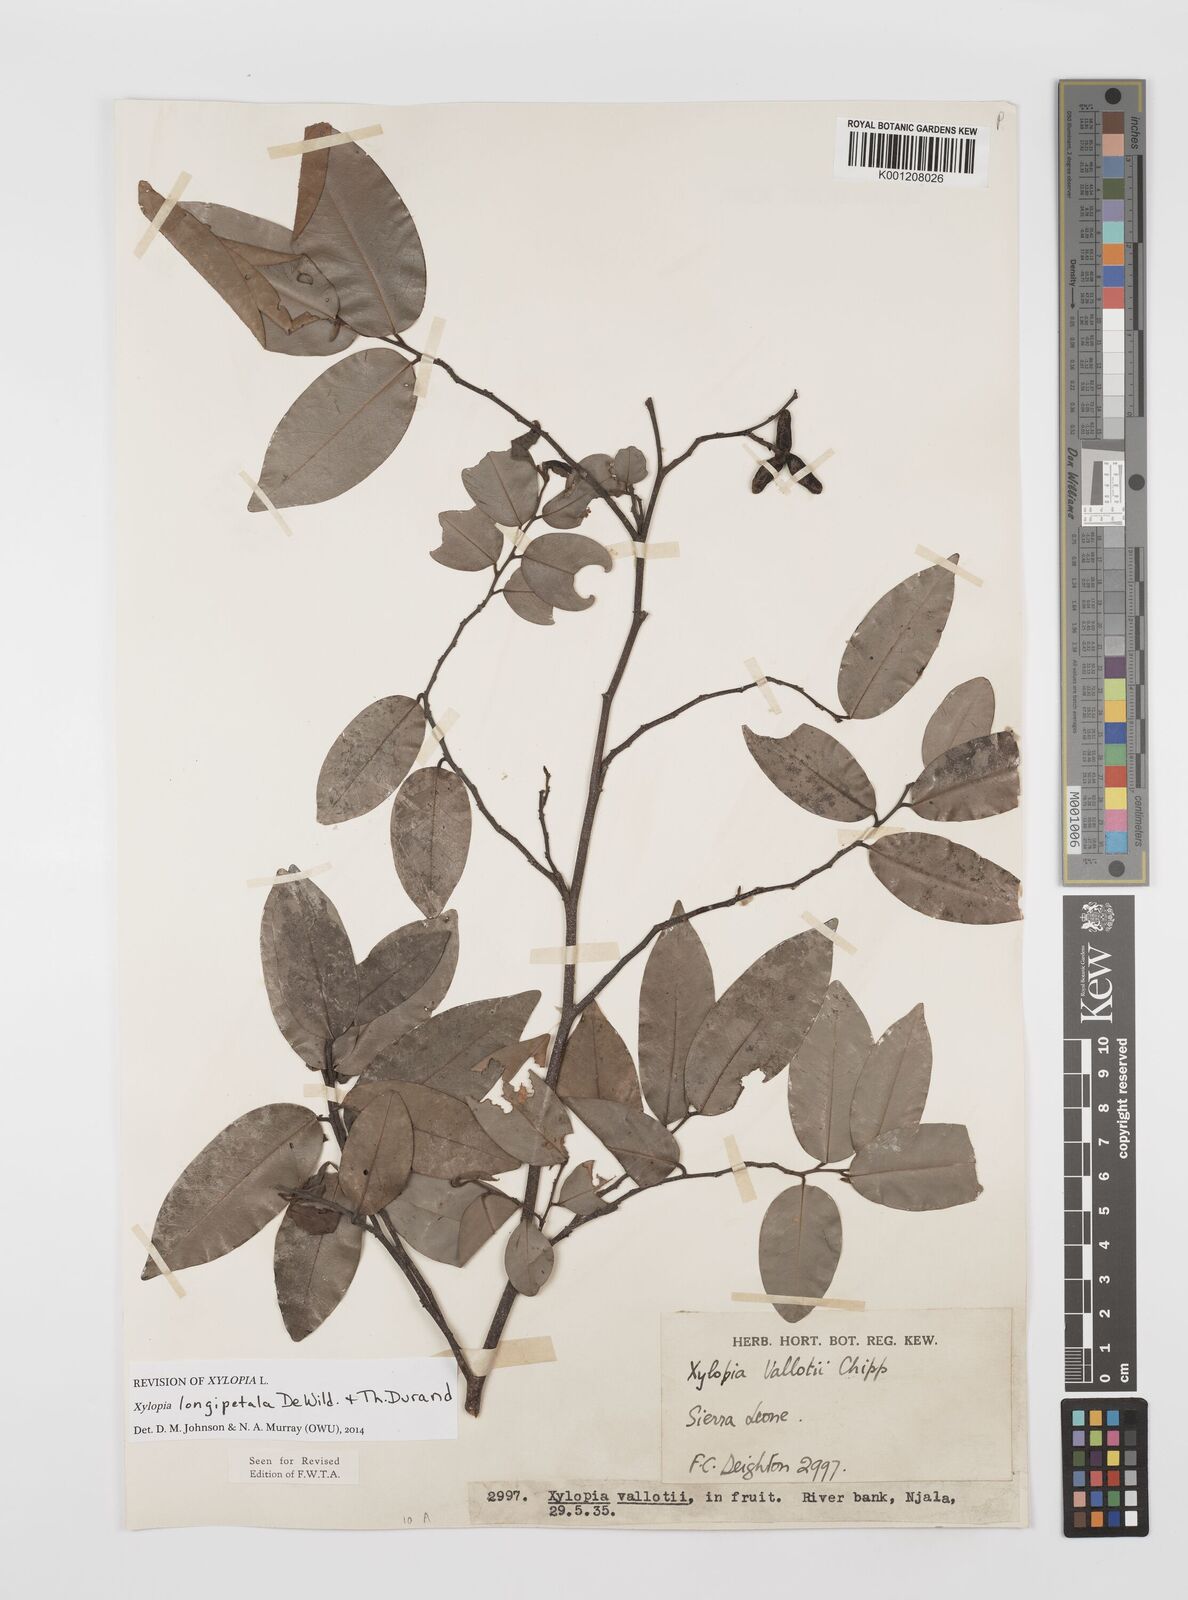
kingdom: Plantae
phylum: Tracheophyta
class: Magnoliopsida
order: Magnoliales
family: Annonaceae
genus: Xylopia
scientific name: Xylopia parviflora
